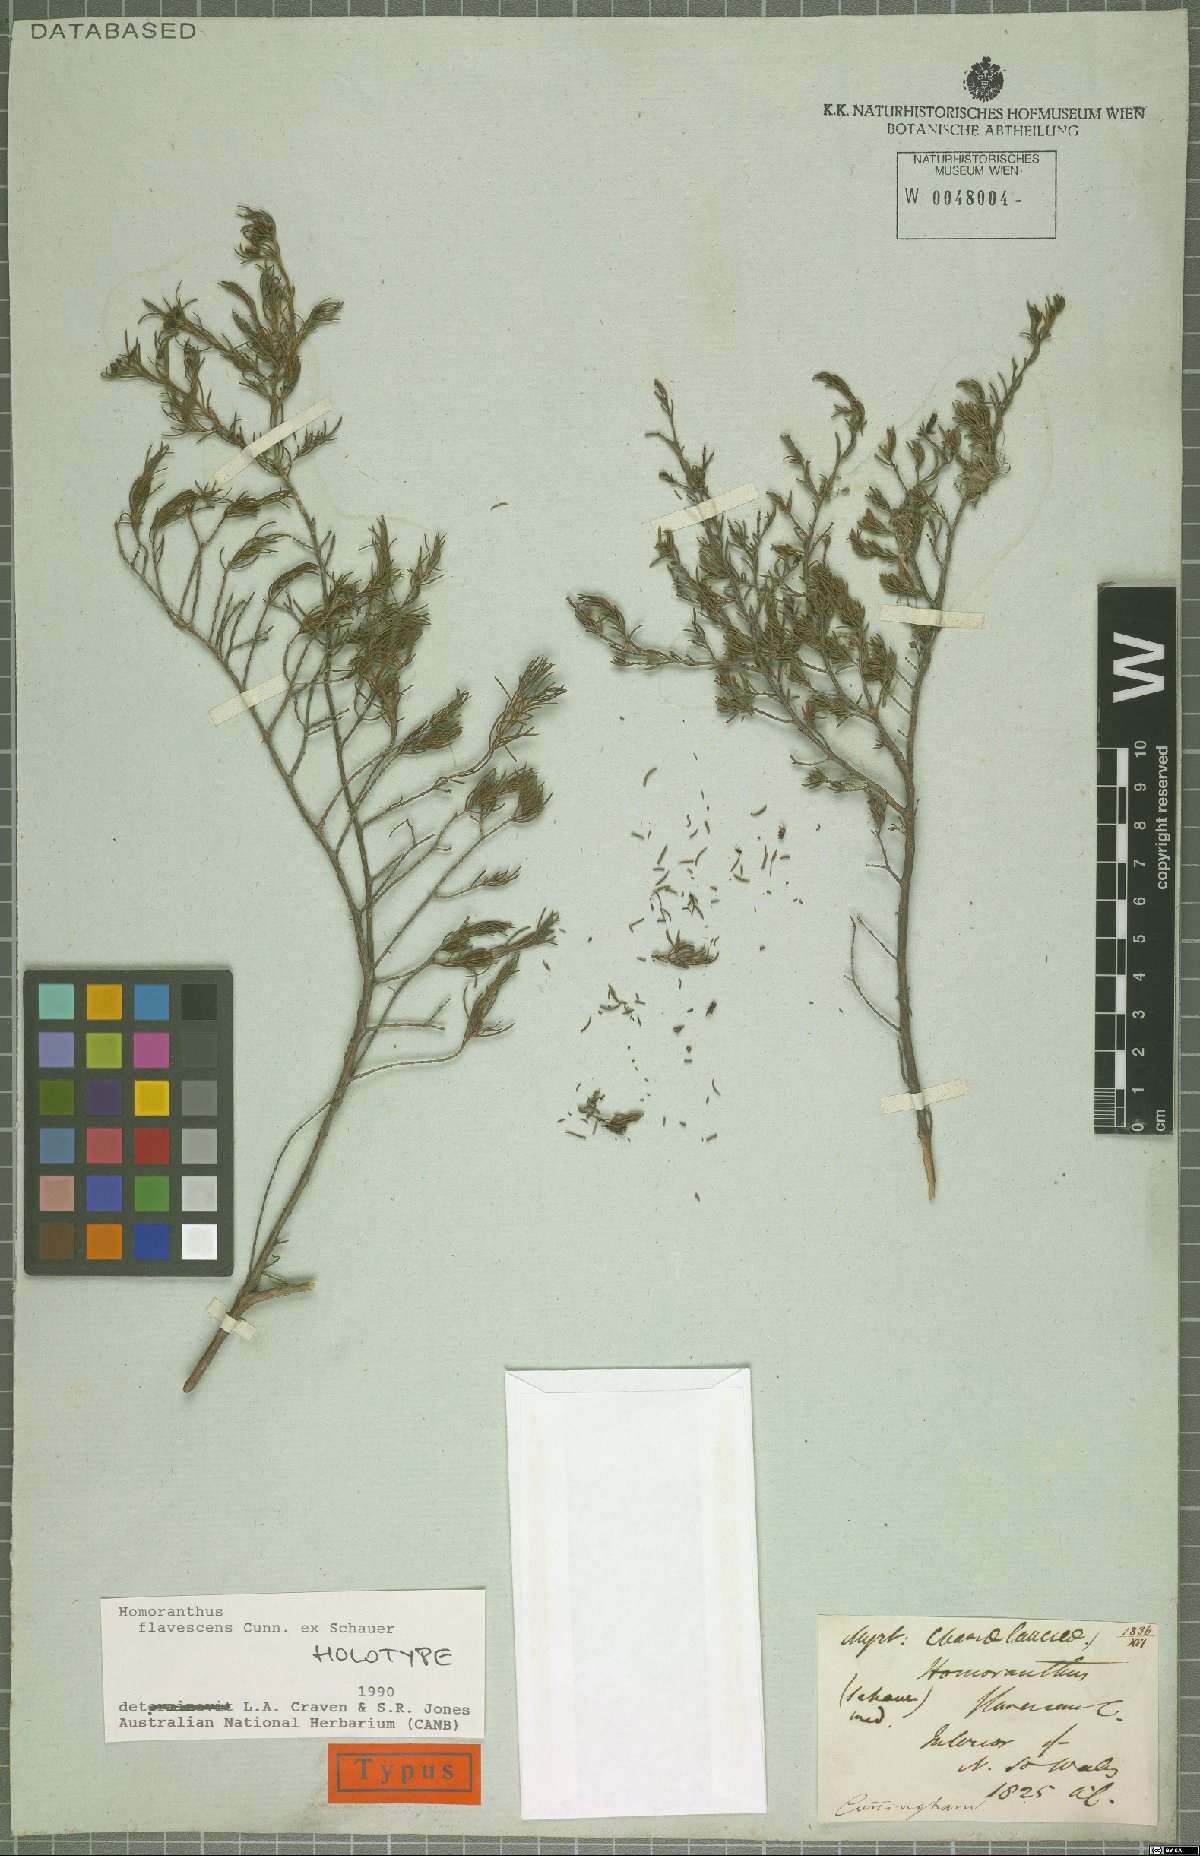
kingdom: Plantae
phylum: Tracheophyta
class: Magnoliopsida
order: Myrtales
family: Myrtaceae
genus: Homoranthus
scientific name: Homoranthus flavescens
